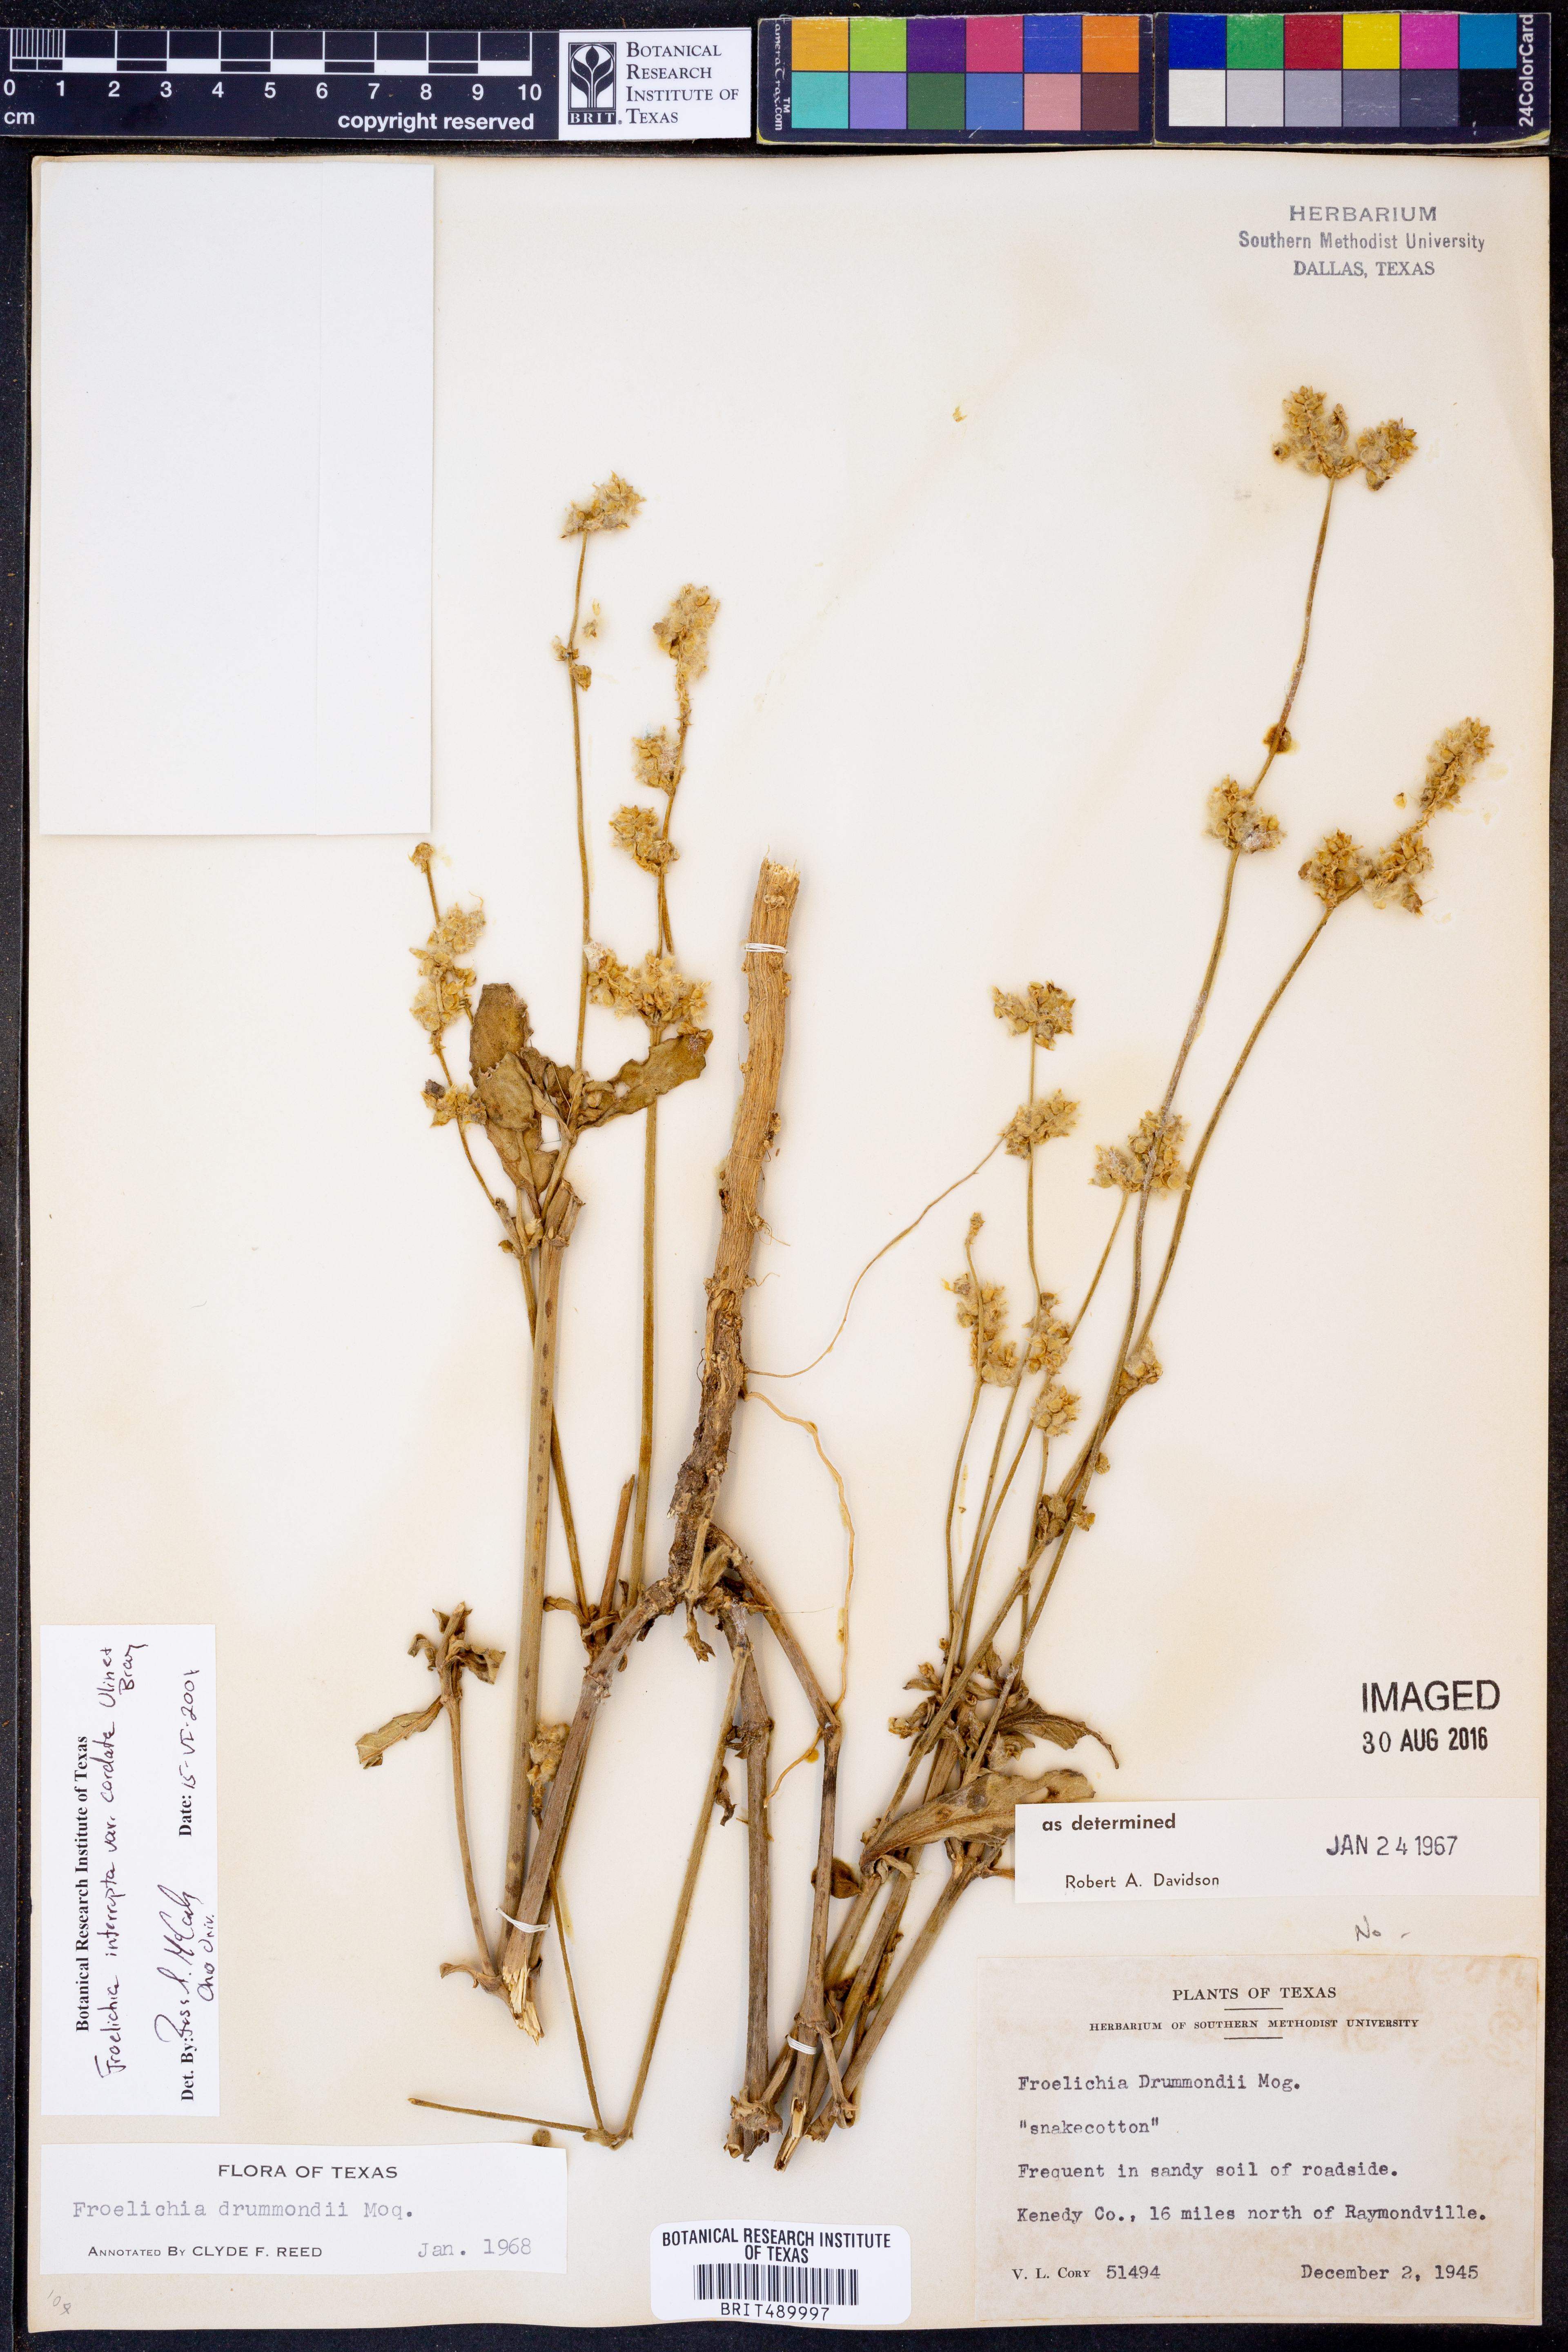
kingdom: Plantae
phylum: Tracheophyta
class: Magnoliopsida
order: Caryophyllales
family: Amaranthaceae
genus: Froelichia
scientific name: Froelichia texana
